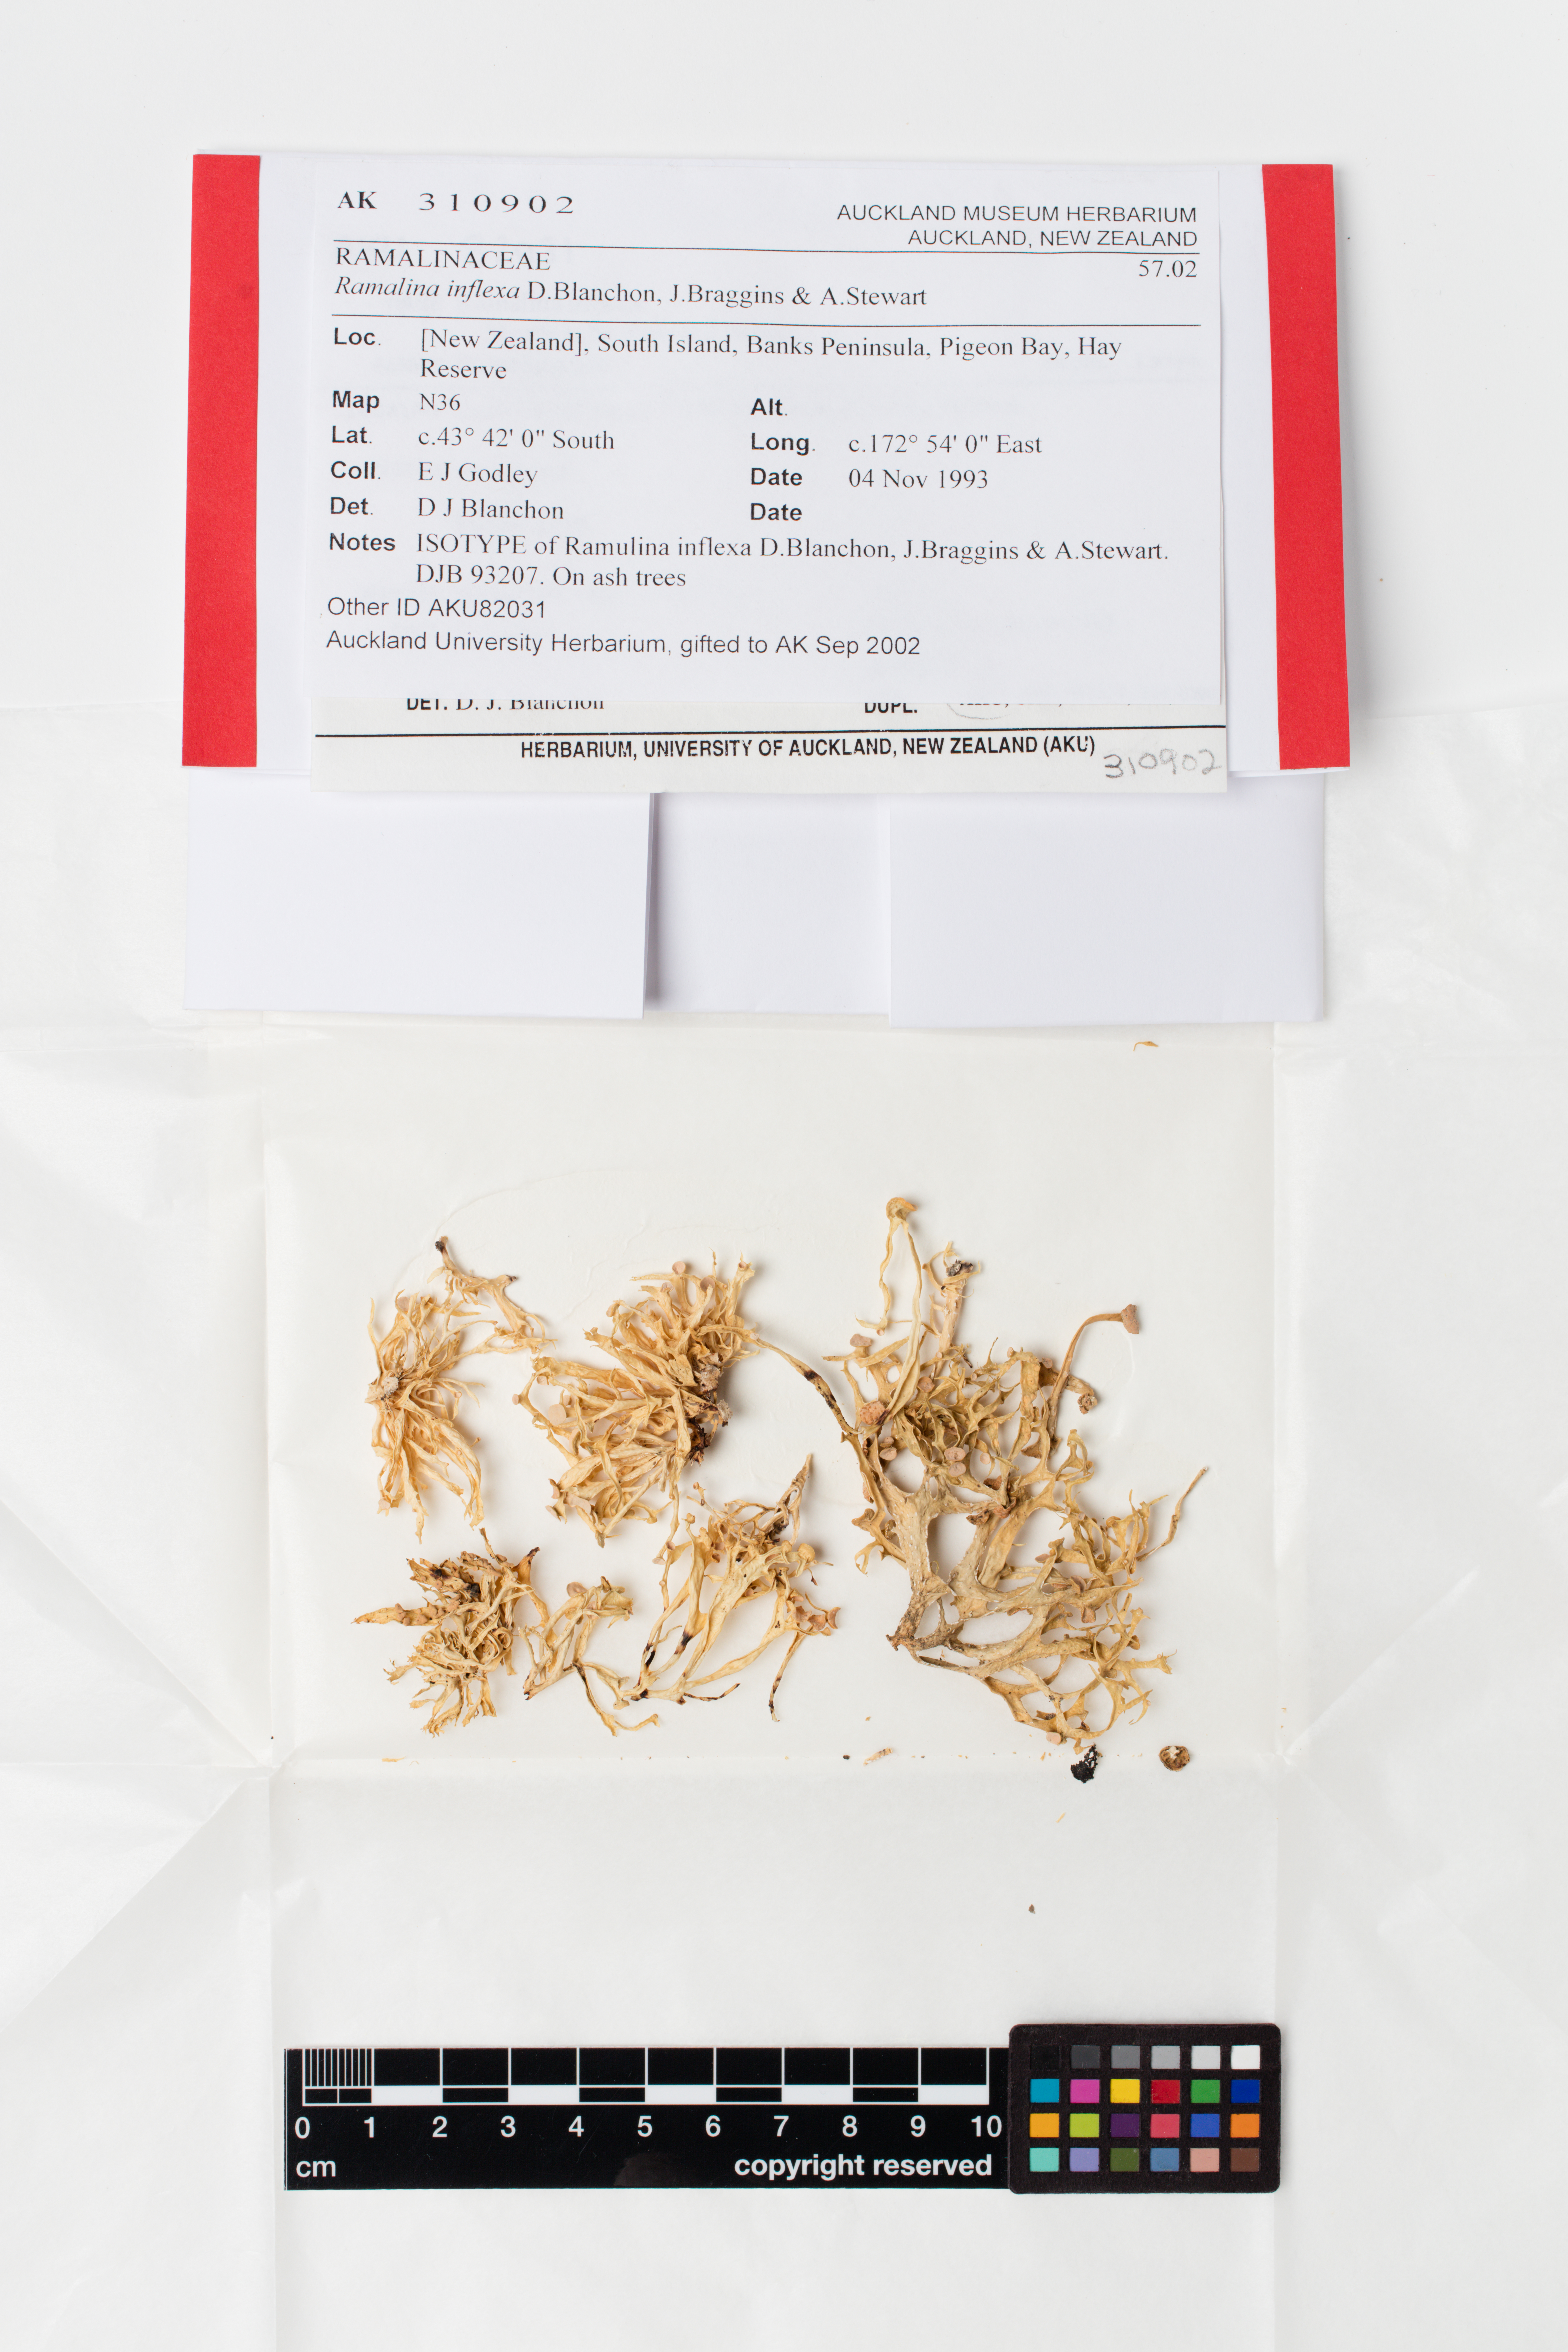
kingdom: Fungi
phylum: Ascomycota
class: Lecanoromycetes
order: Lecanorales
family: Ramalinaceae
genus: Ramalina
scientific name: Ramalina inflexa
